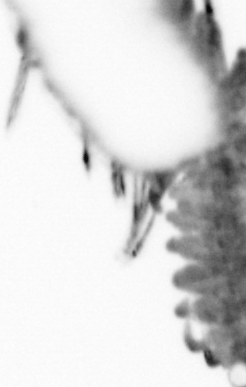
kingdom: Animalia
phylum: Annelida
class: Polychaeta
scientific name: Polychaeta
